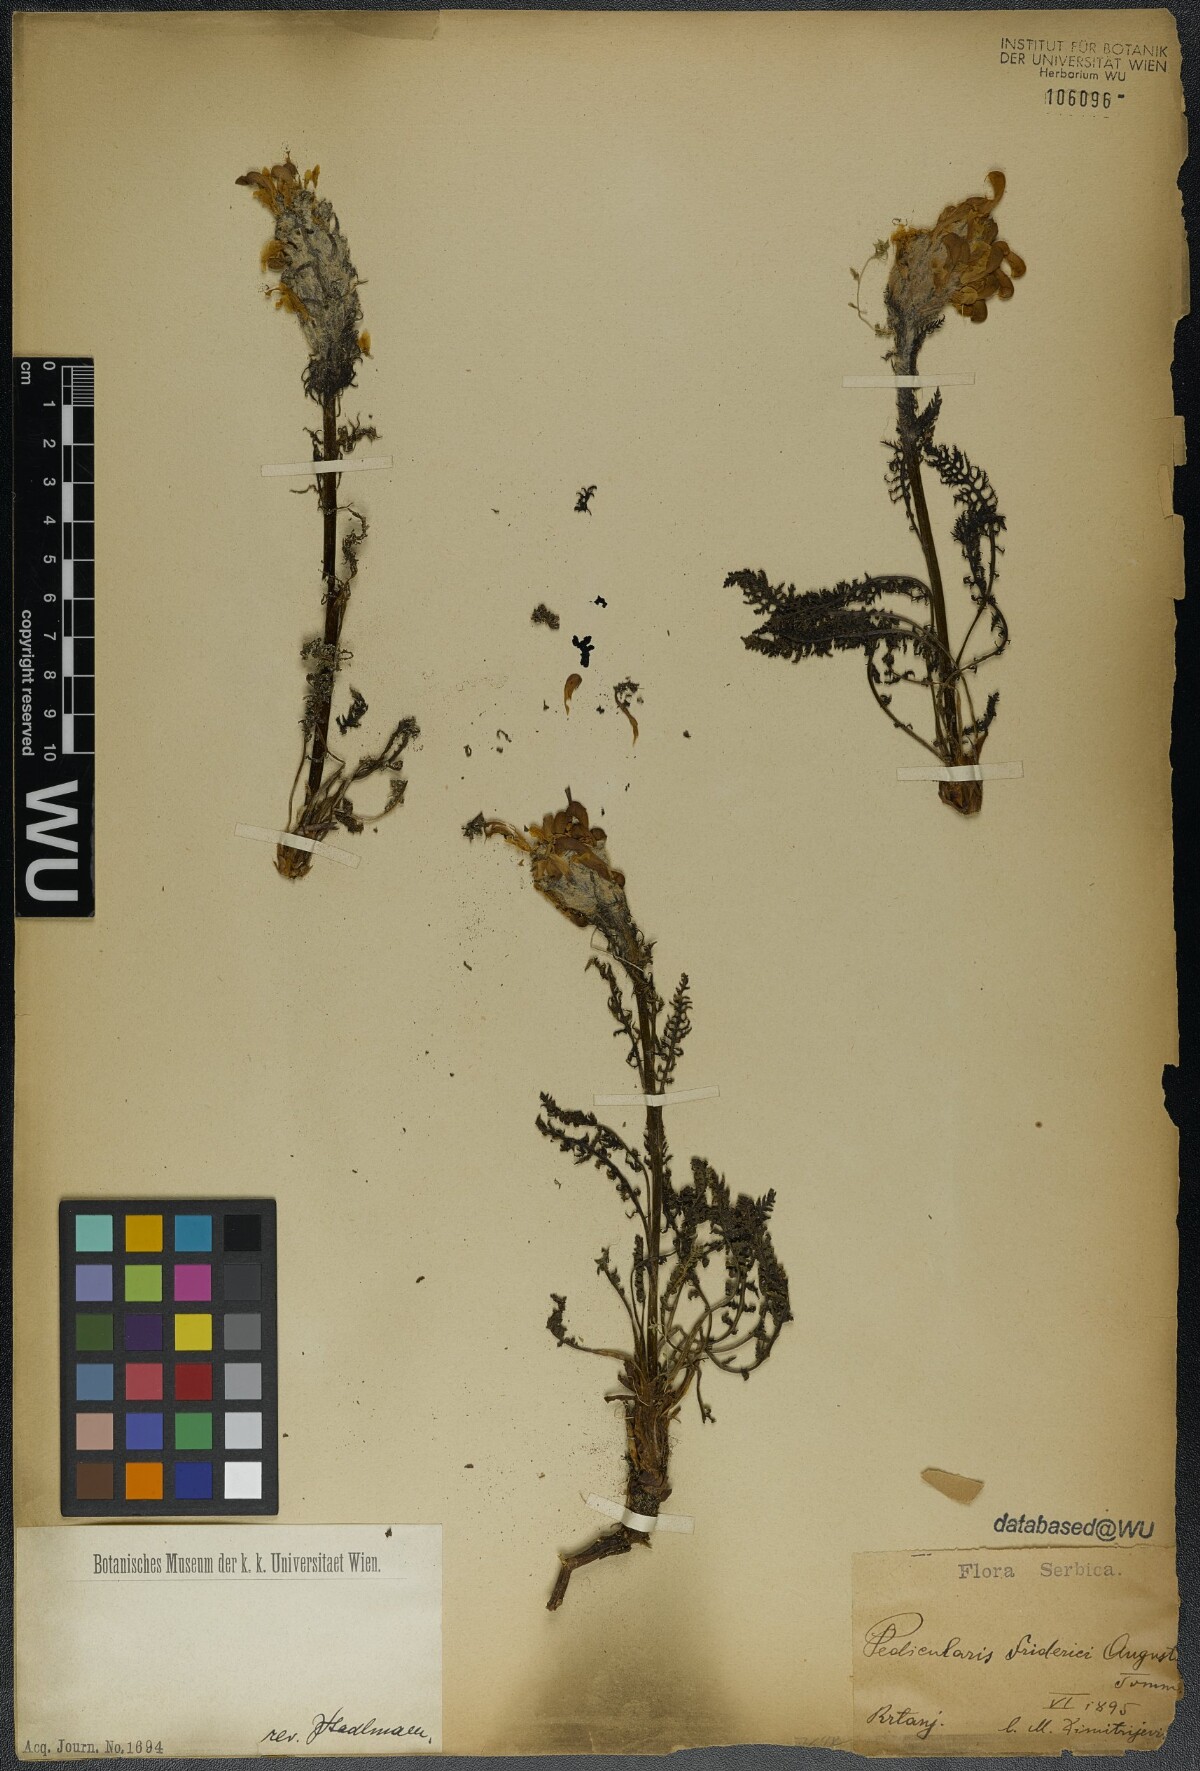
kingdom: Plantae
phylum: Tracheophyta
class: Magnoliopsida
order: Lamiales
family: Orobanchaceae
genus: Pedicularis
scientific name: Pedicularis friderici-augusti
